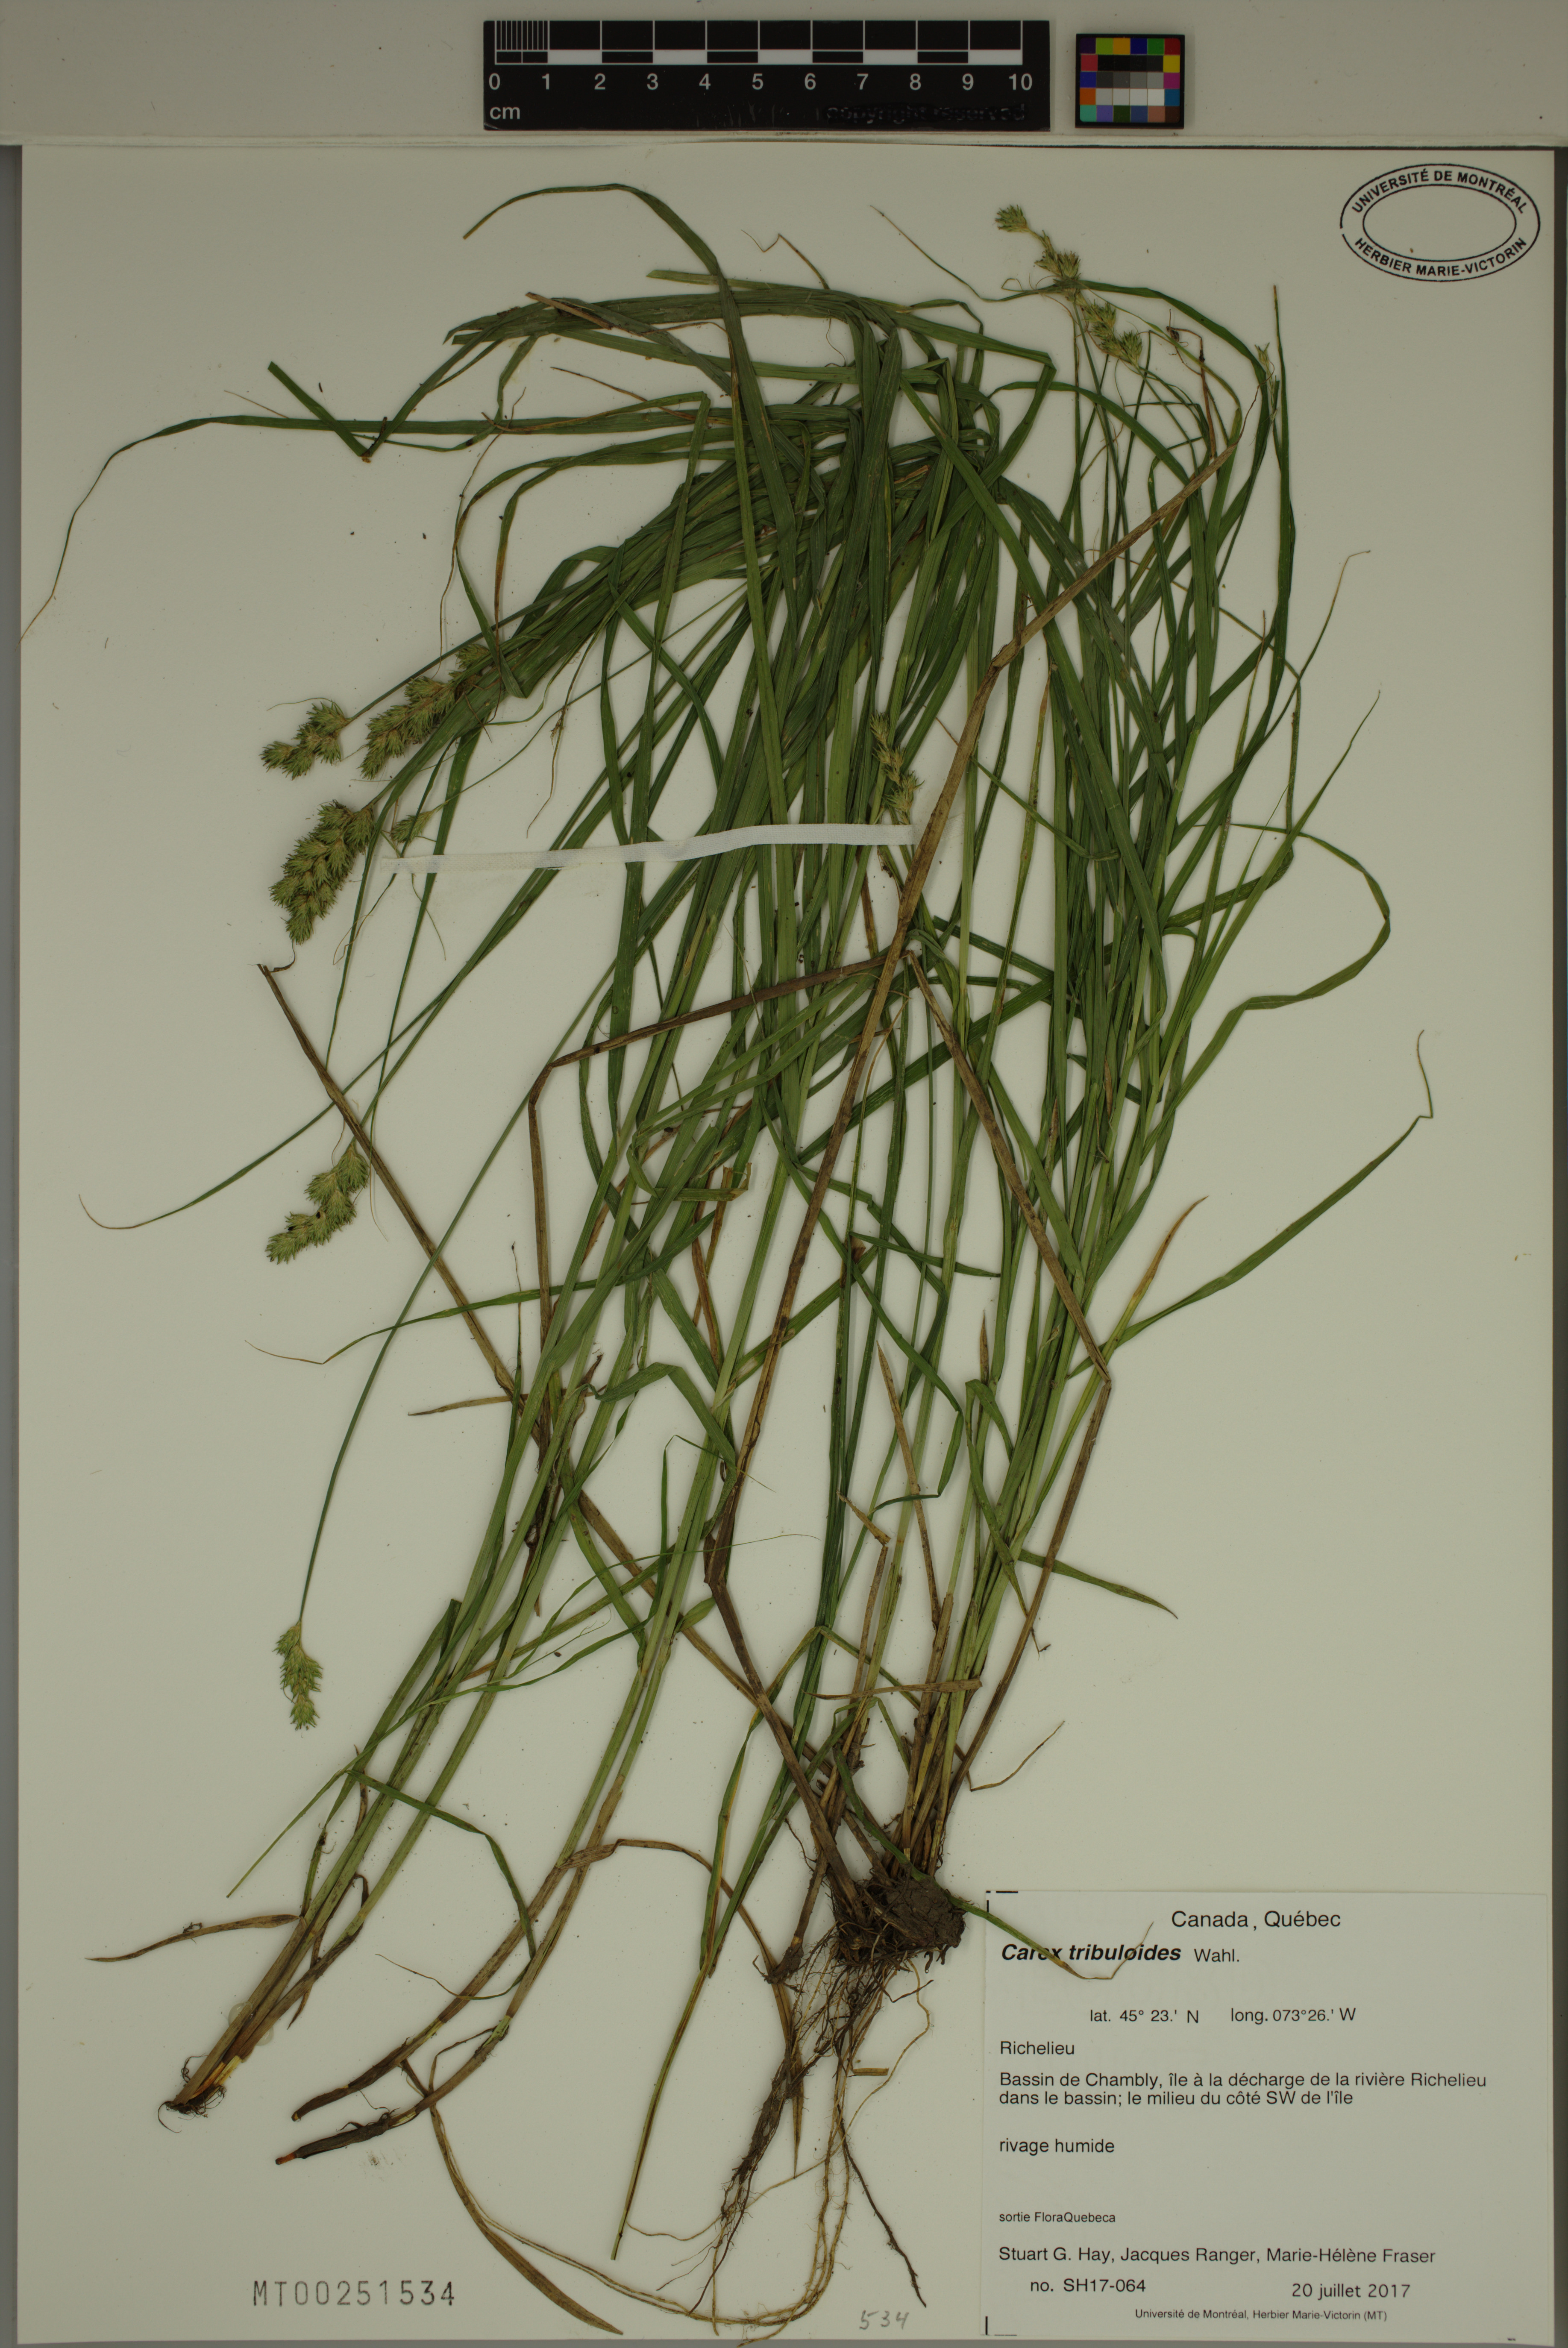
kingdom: Plantae
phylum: Tracheophyta
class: Liliopsida
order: Poales
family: Cyperaceae
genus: Carex
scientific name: Carex tribuloides
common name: Blunt broom sedge
